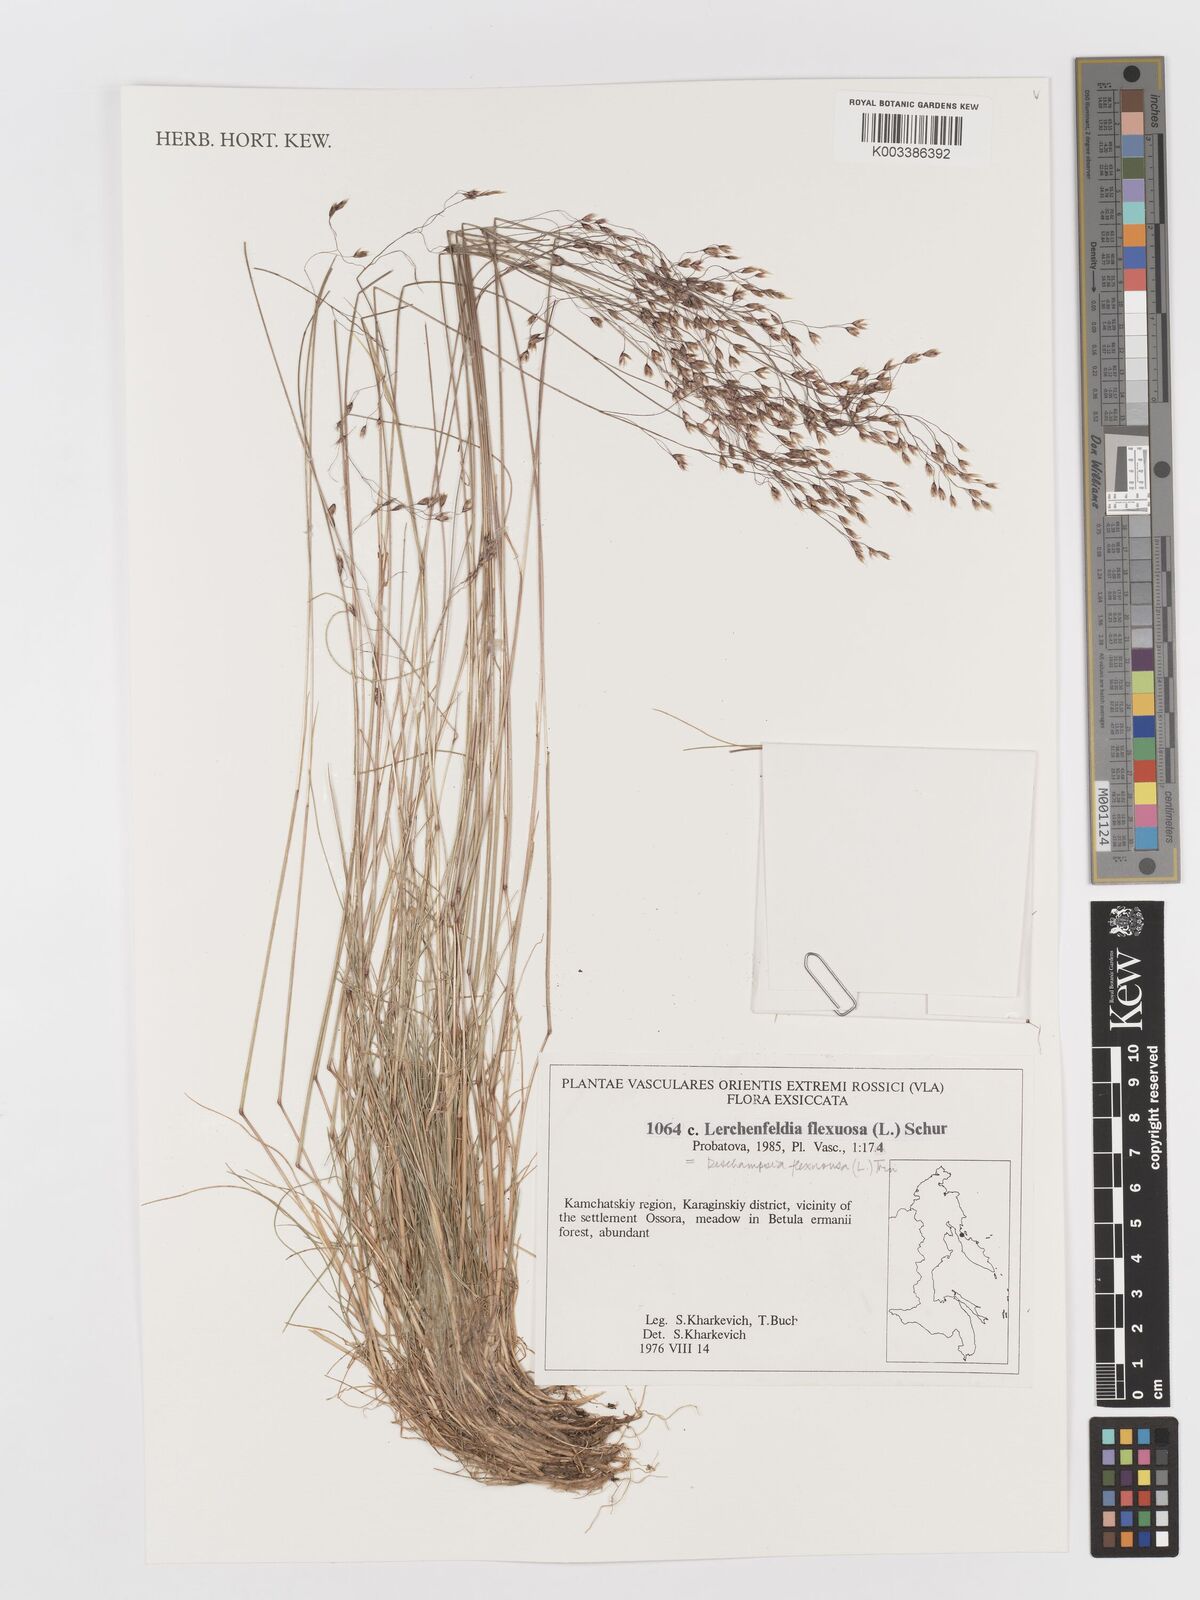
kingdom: Plantae
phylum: Tracheophyta
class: Liliopsida
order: Poales
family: Poaceae
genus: Avenella
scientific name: Avenella flexuosa
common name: Wavy hairgrass
